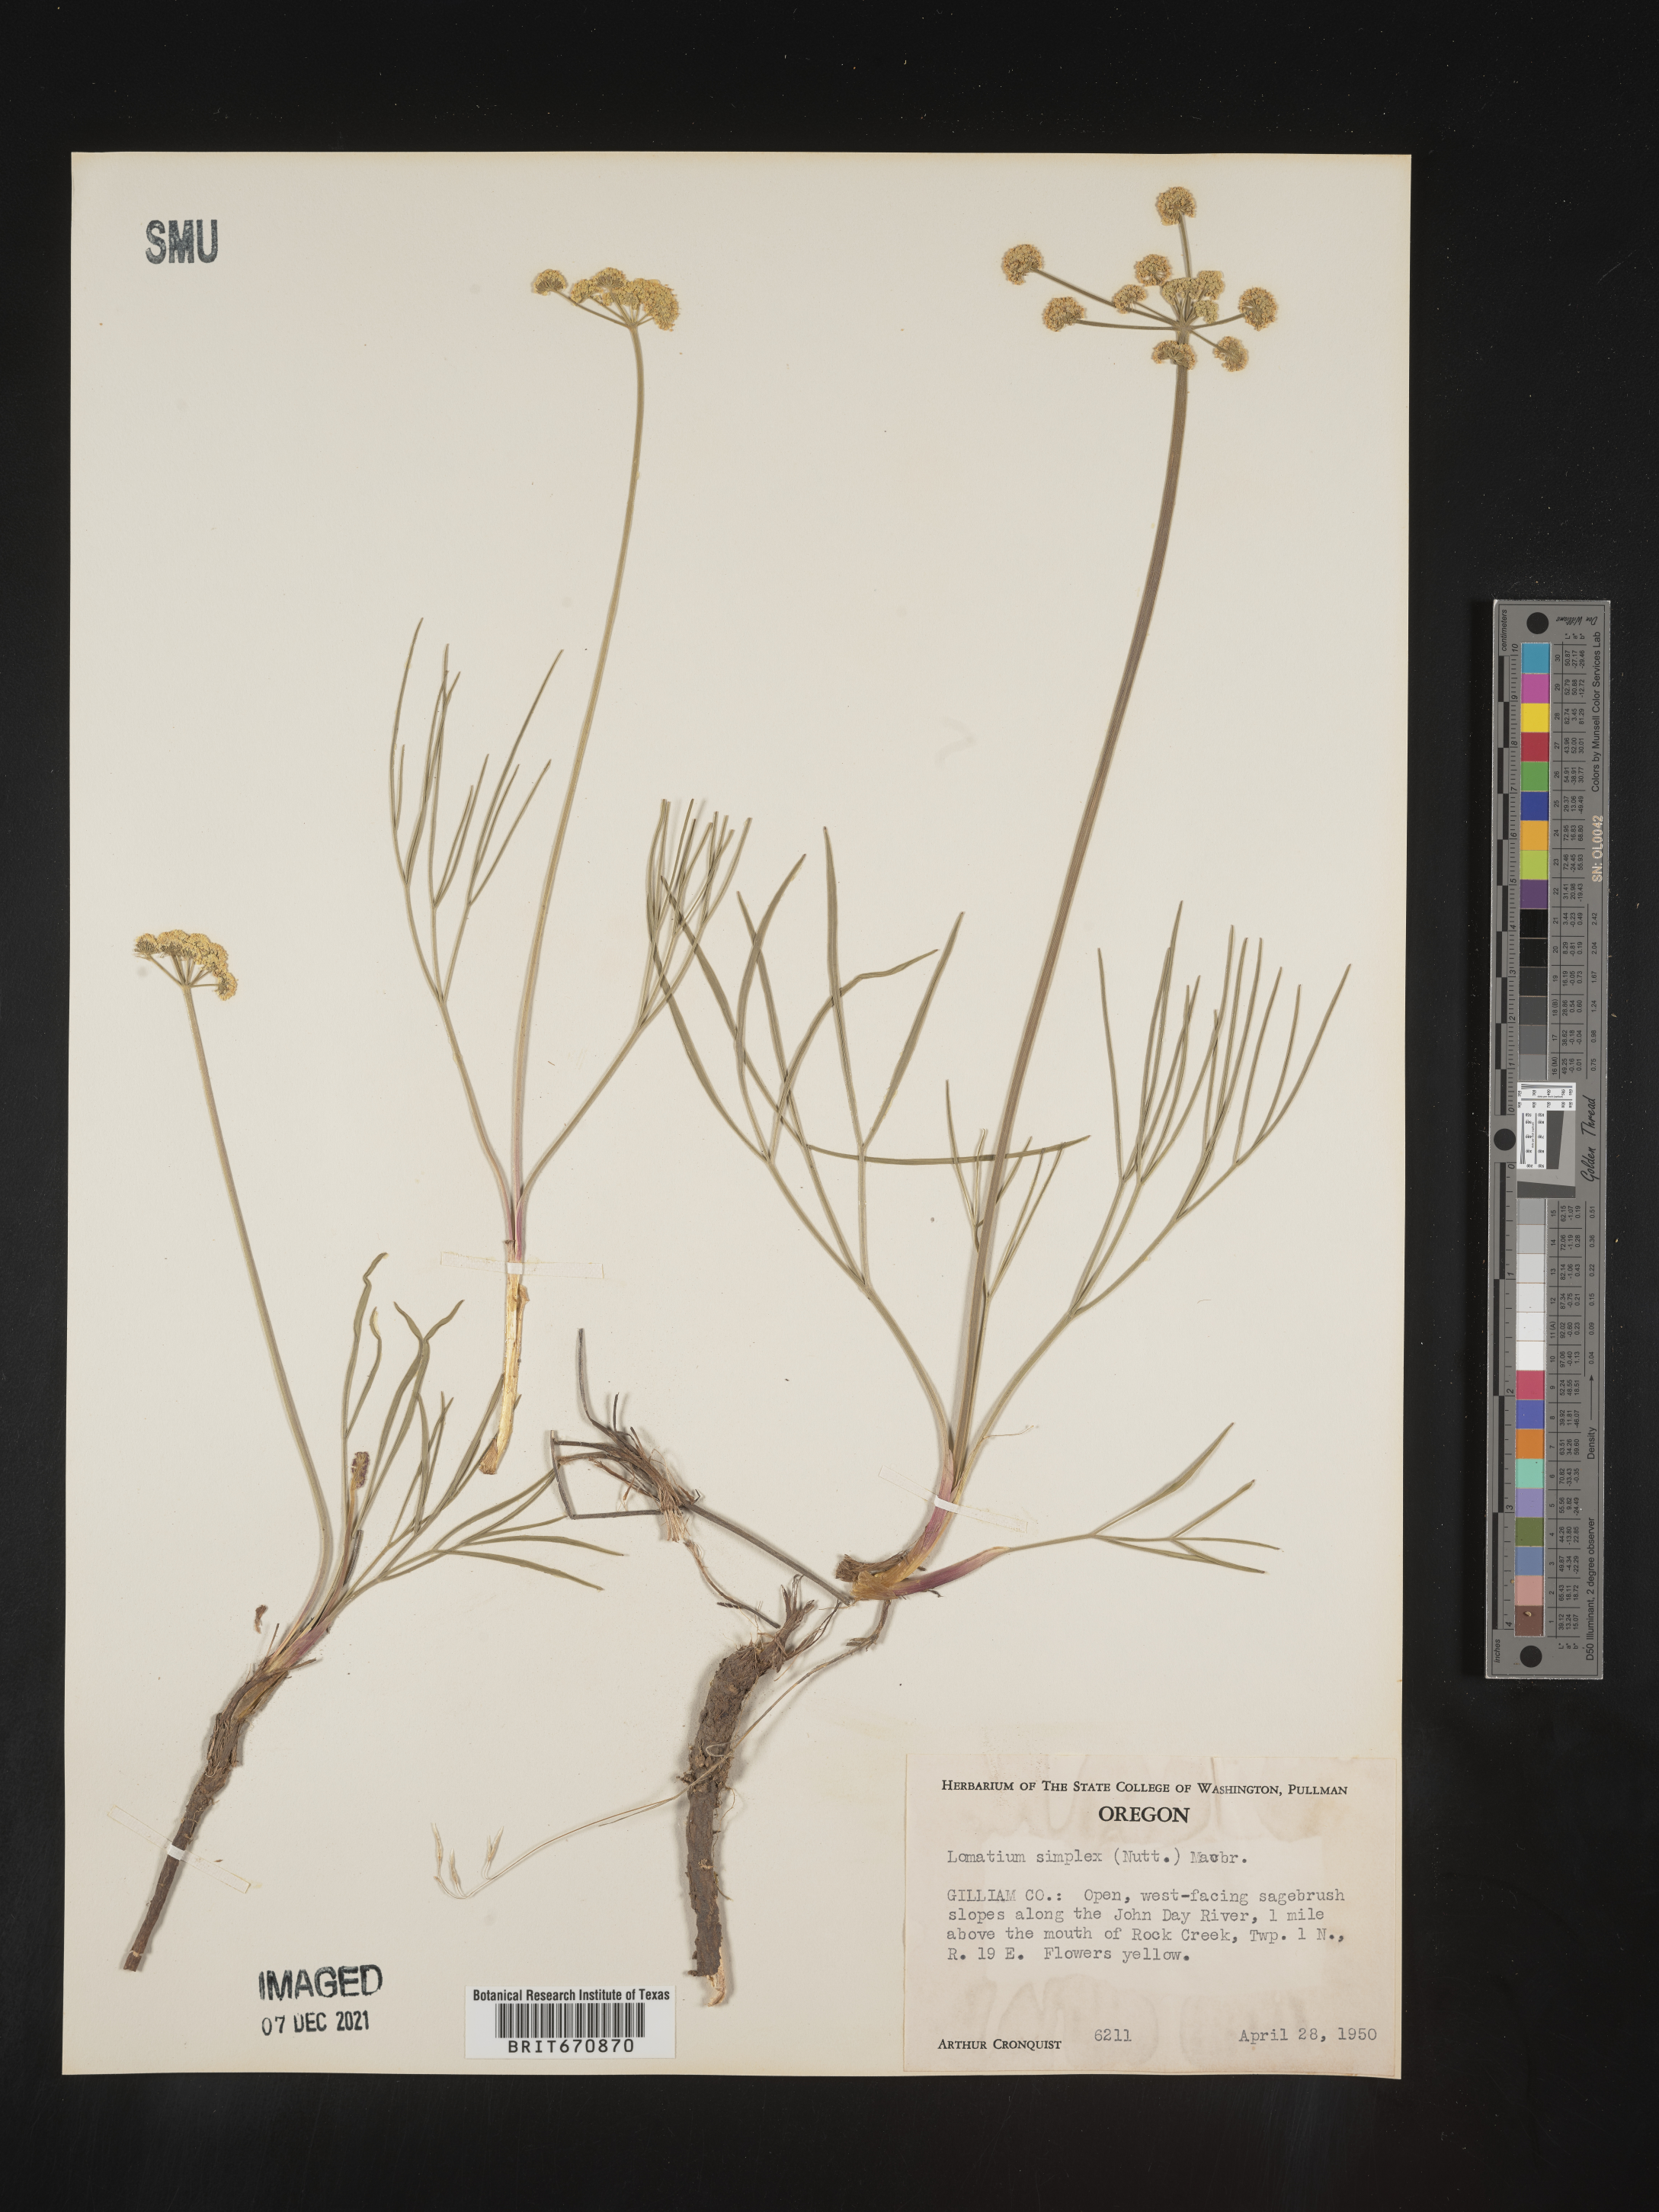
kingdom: Plantae
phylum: Tracheophyta
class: Magnoliopsida
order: Apiales
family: Apiaceae
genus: Lomatium
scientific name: Lomatium simplex
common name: Great basin biscuitroot
